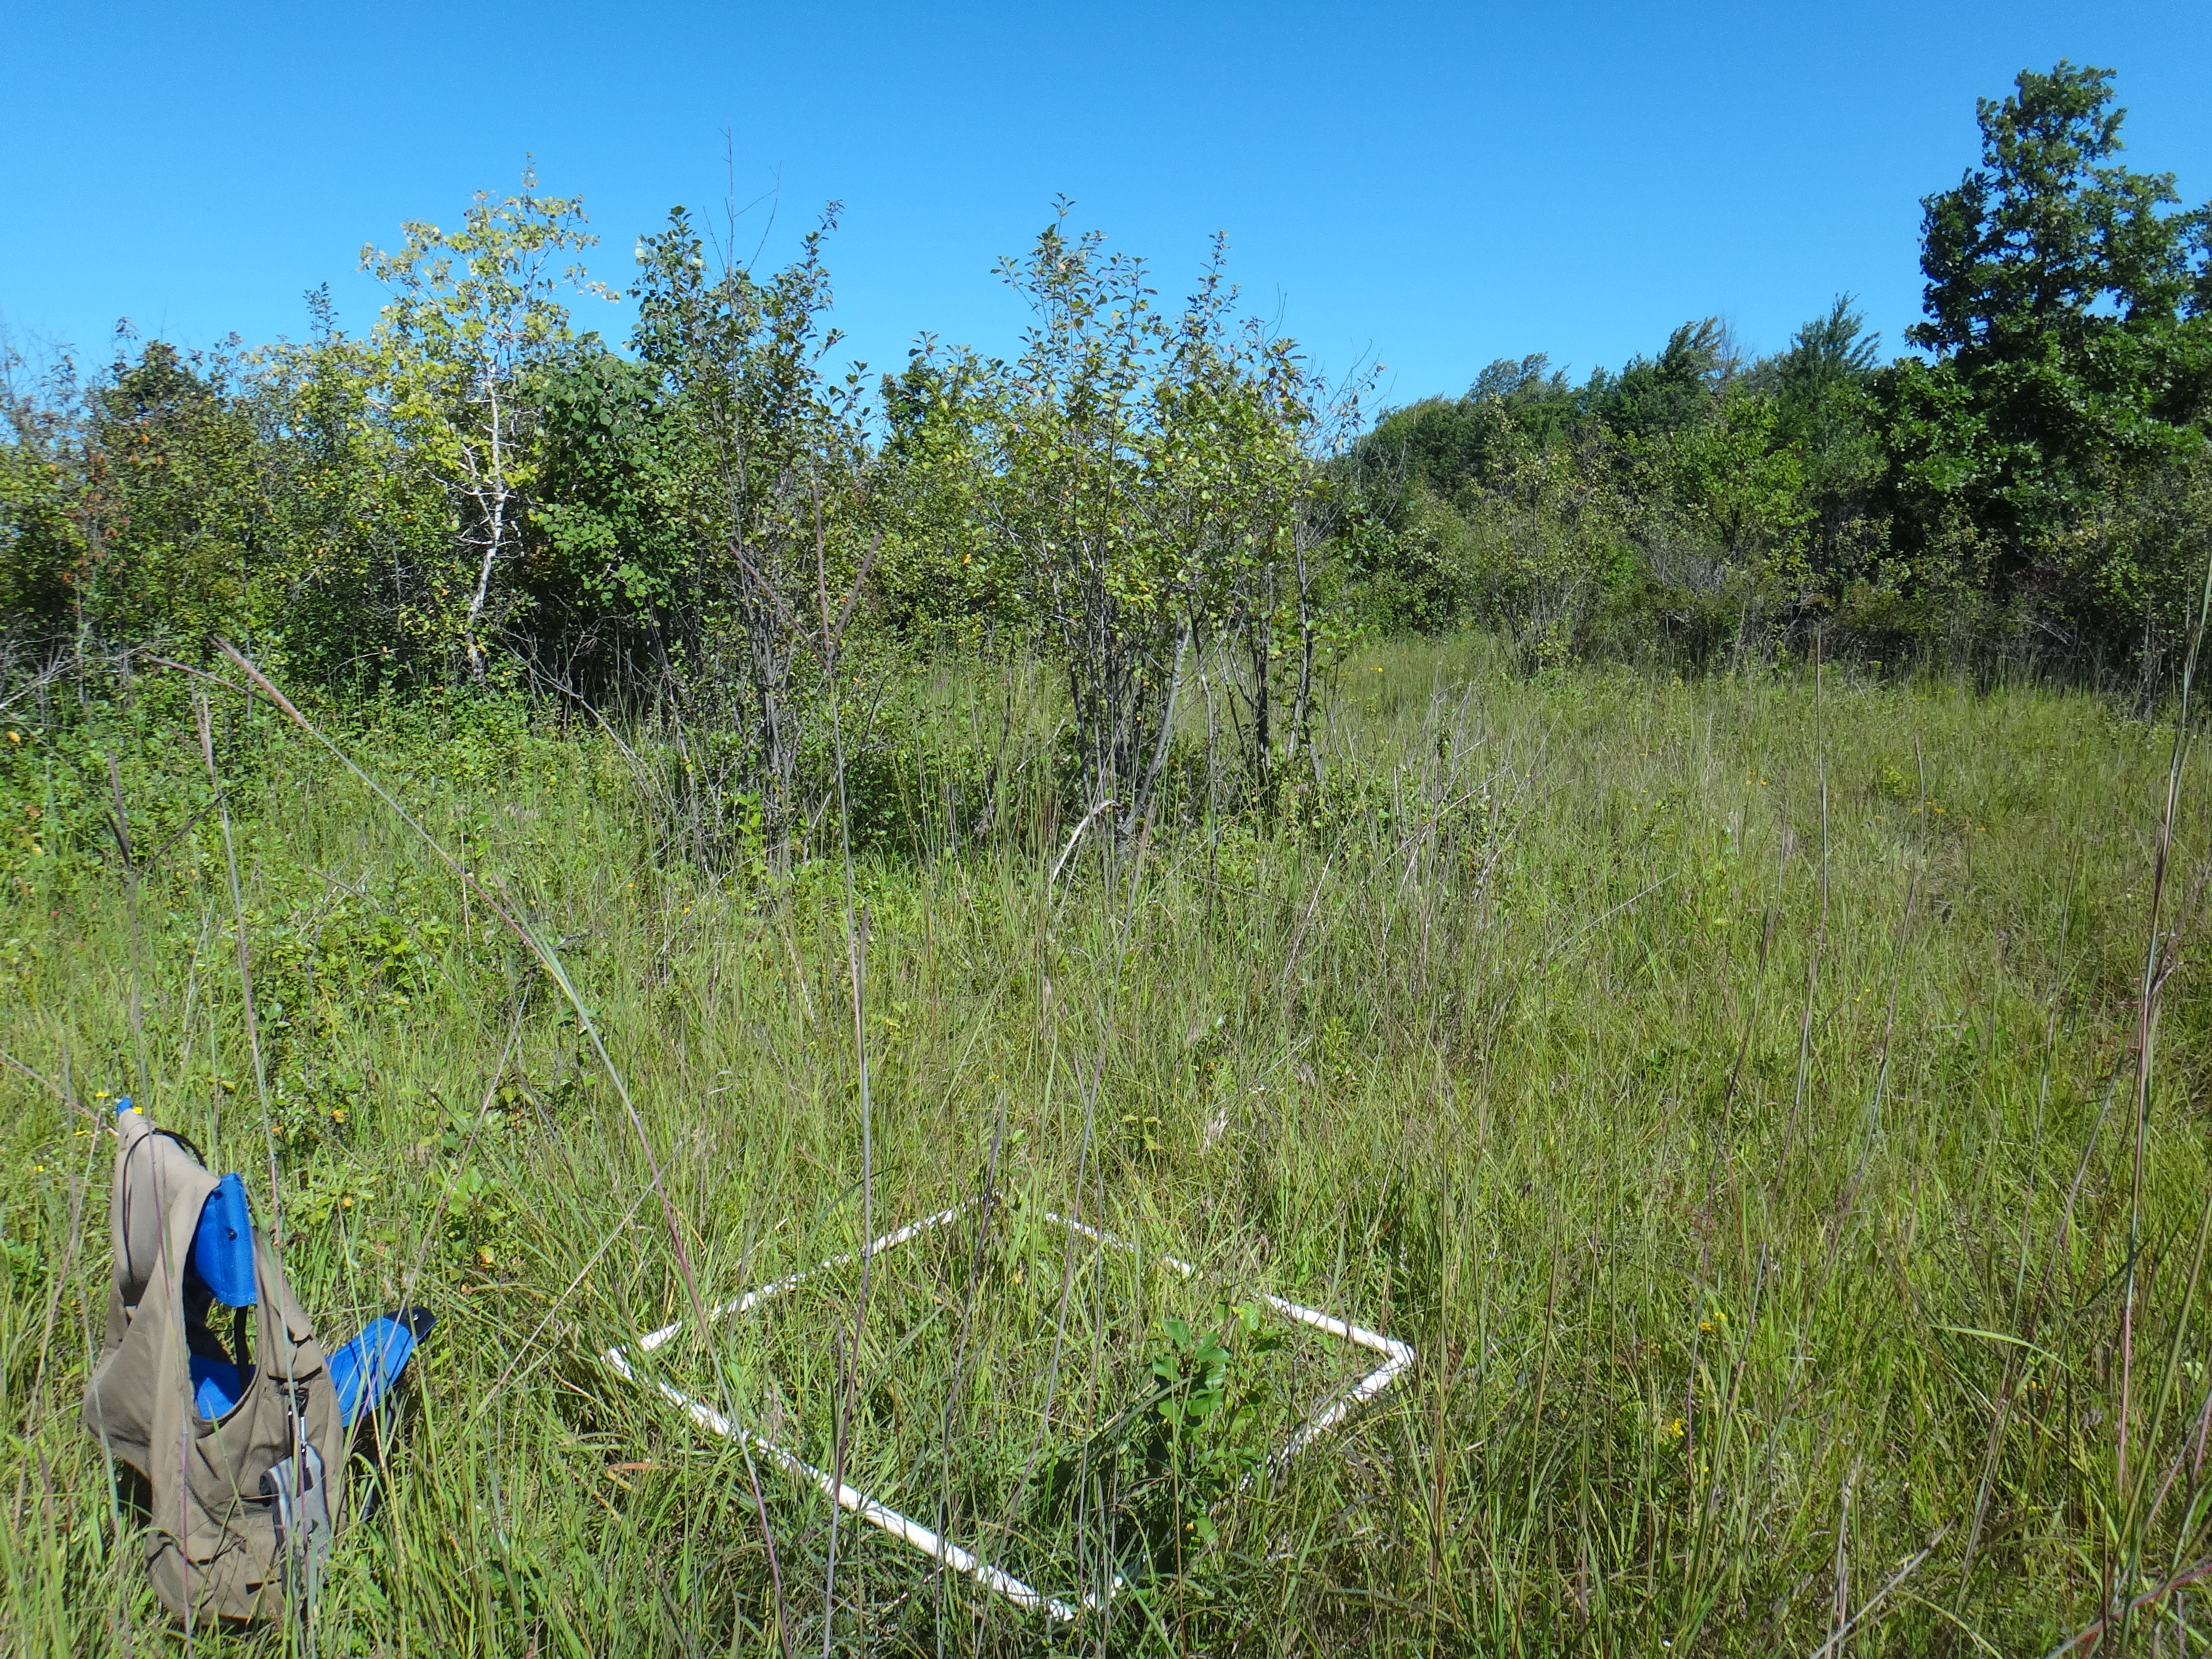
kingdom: Plantae
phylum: Tracheophyta
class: Magnoliopsida
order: Asterales
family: Asteraceae
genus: Ratibida
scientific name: Ratibida pinnata
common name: Drooping prairie-coneflower
